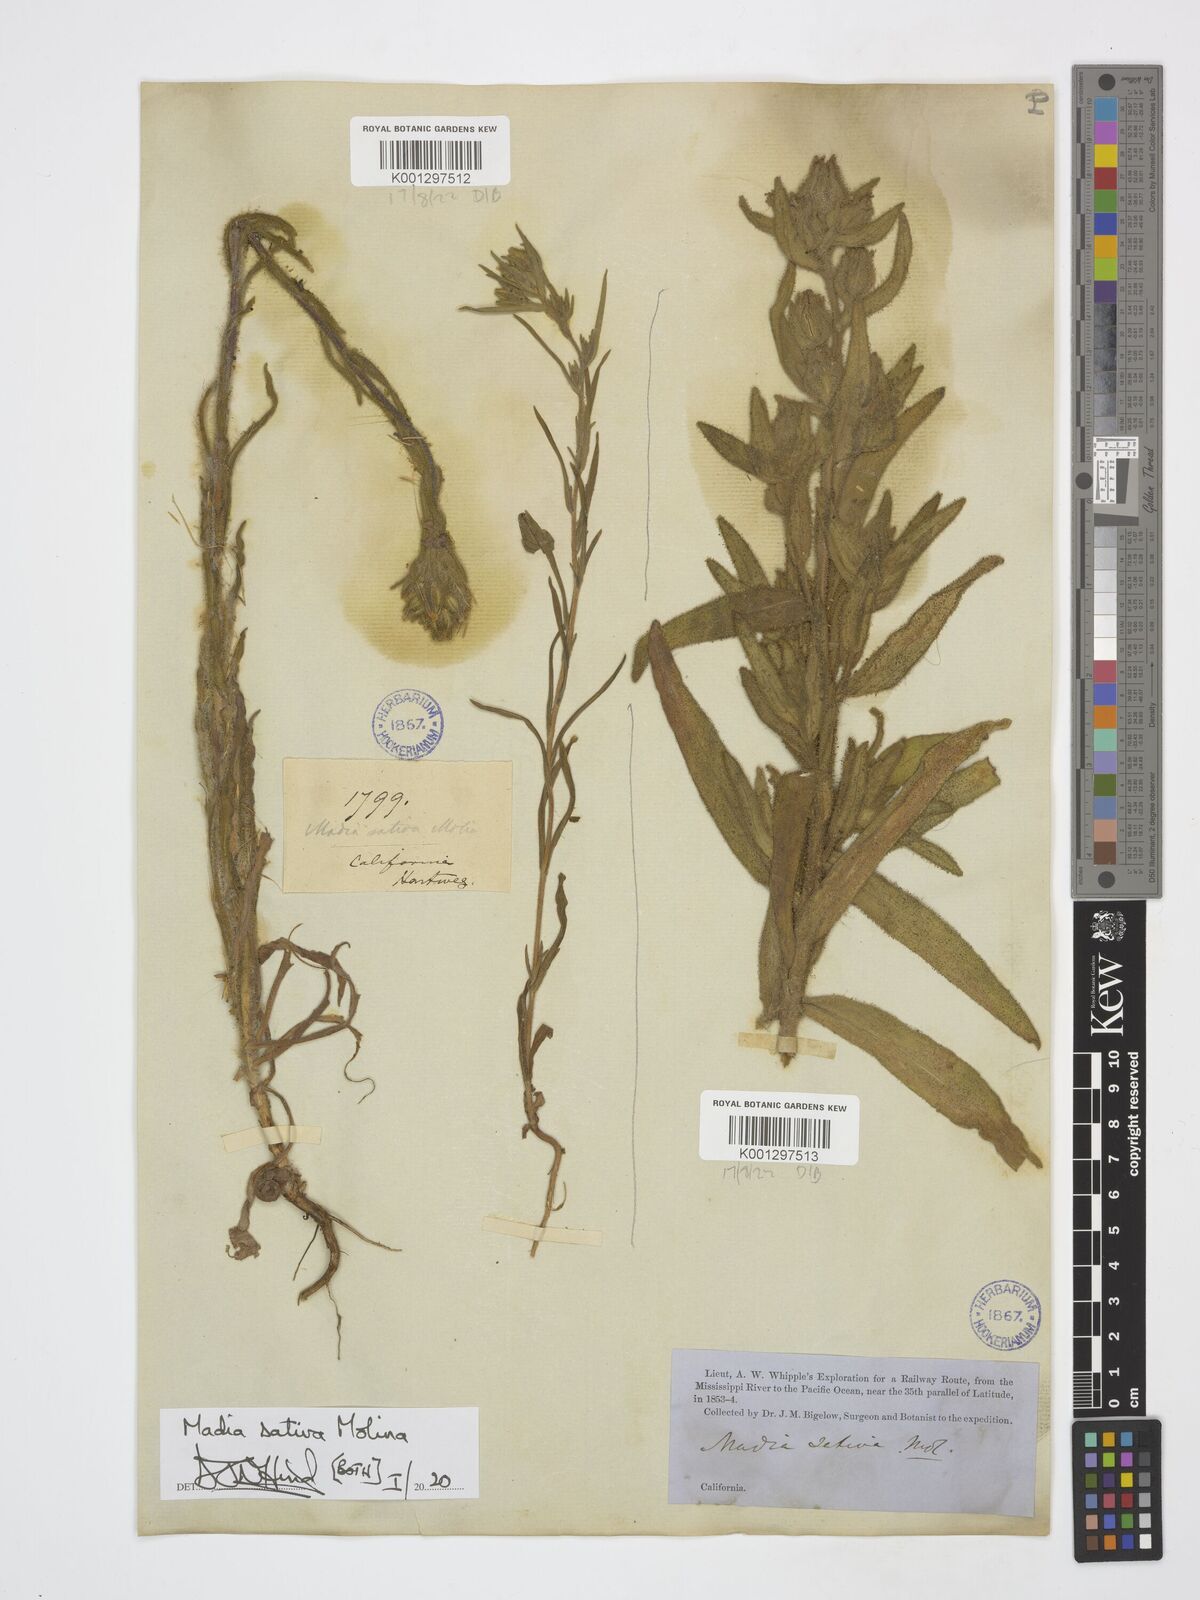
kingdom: Plantae
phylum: Tracheophyta
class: Magnoliopsida
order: Asterales
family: Asteraceae
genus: Madia
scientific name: Madia sativa
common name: Coast tarweed
